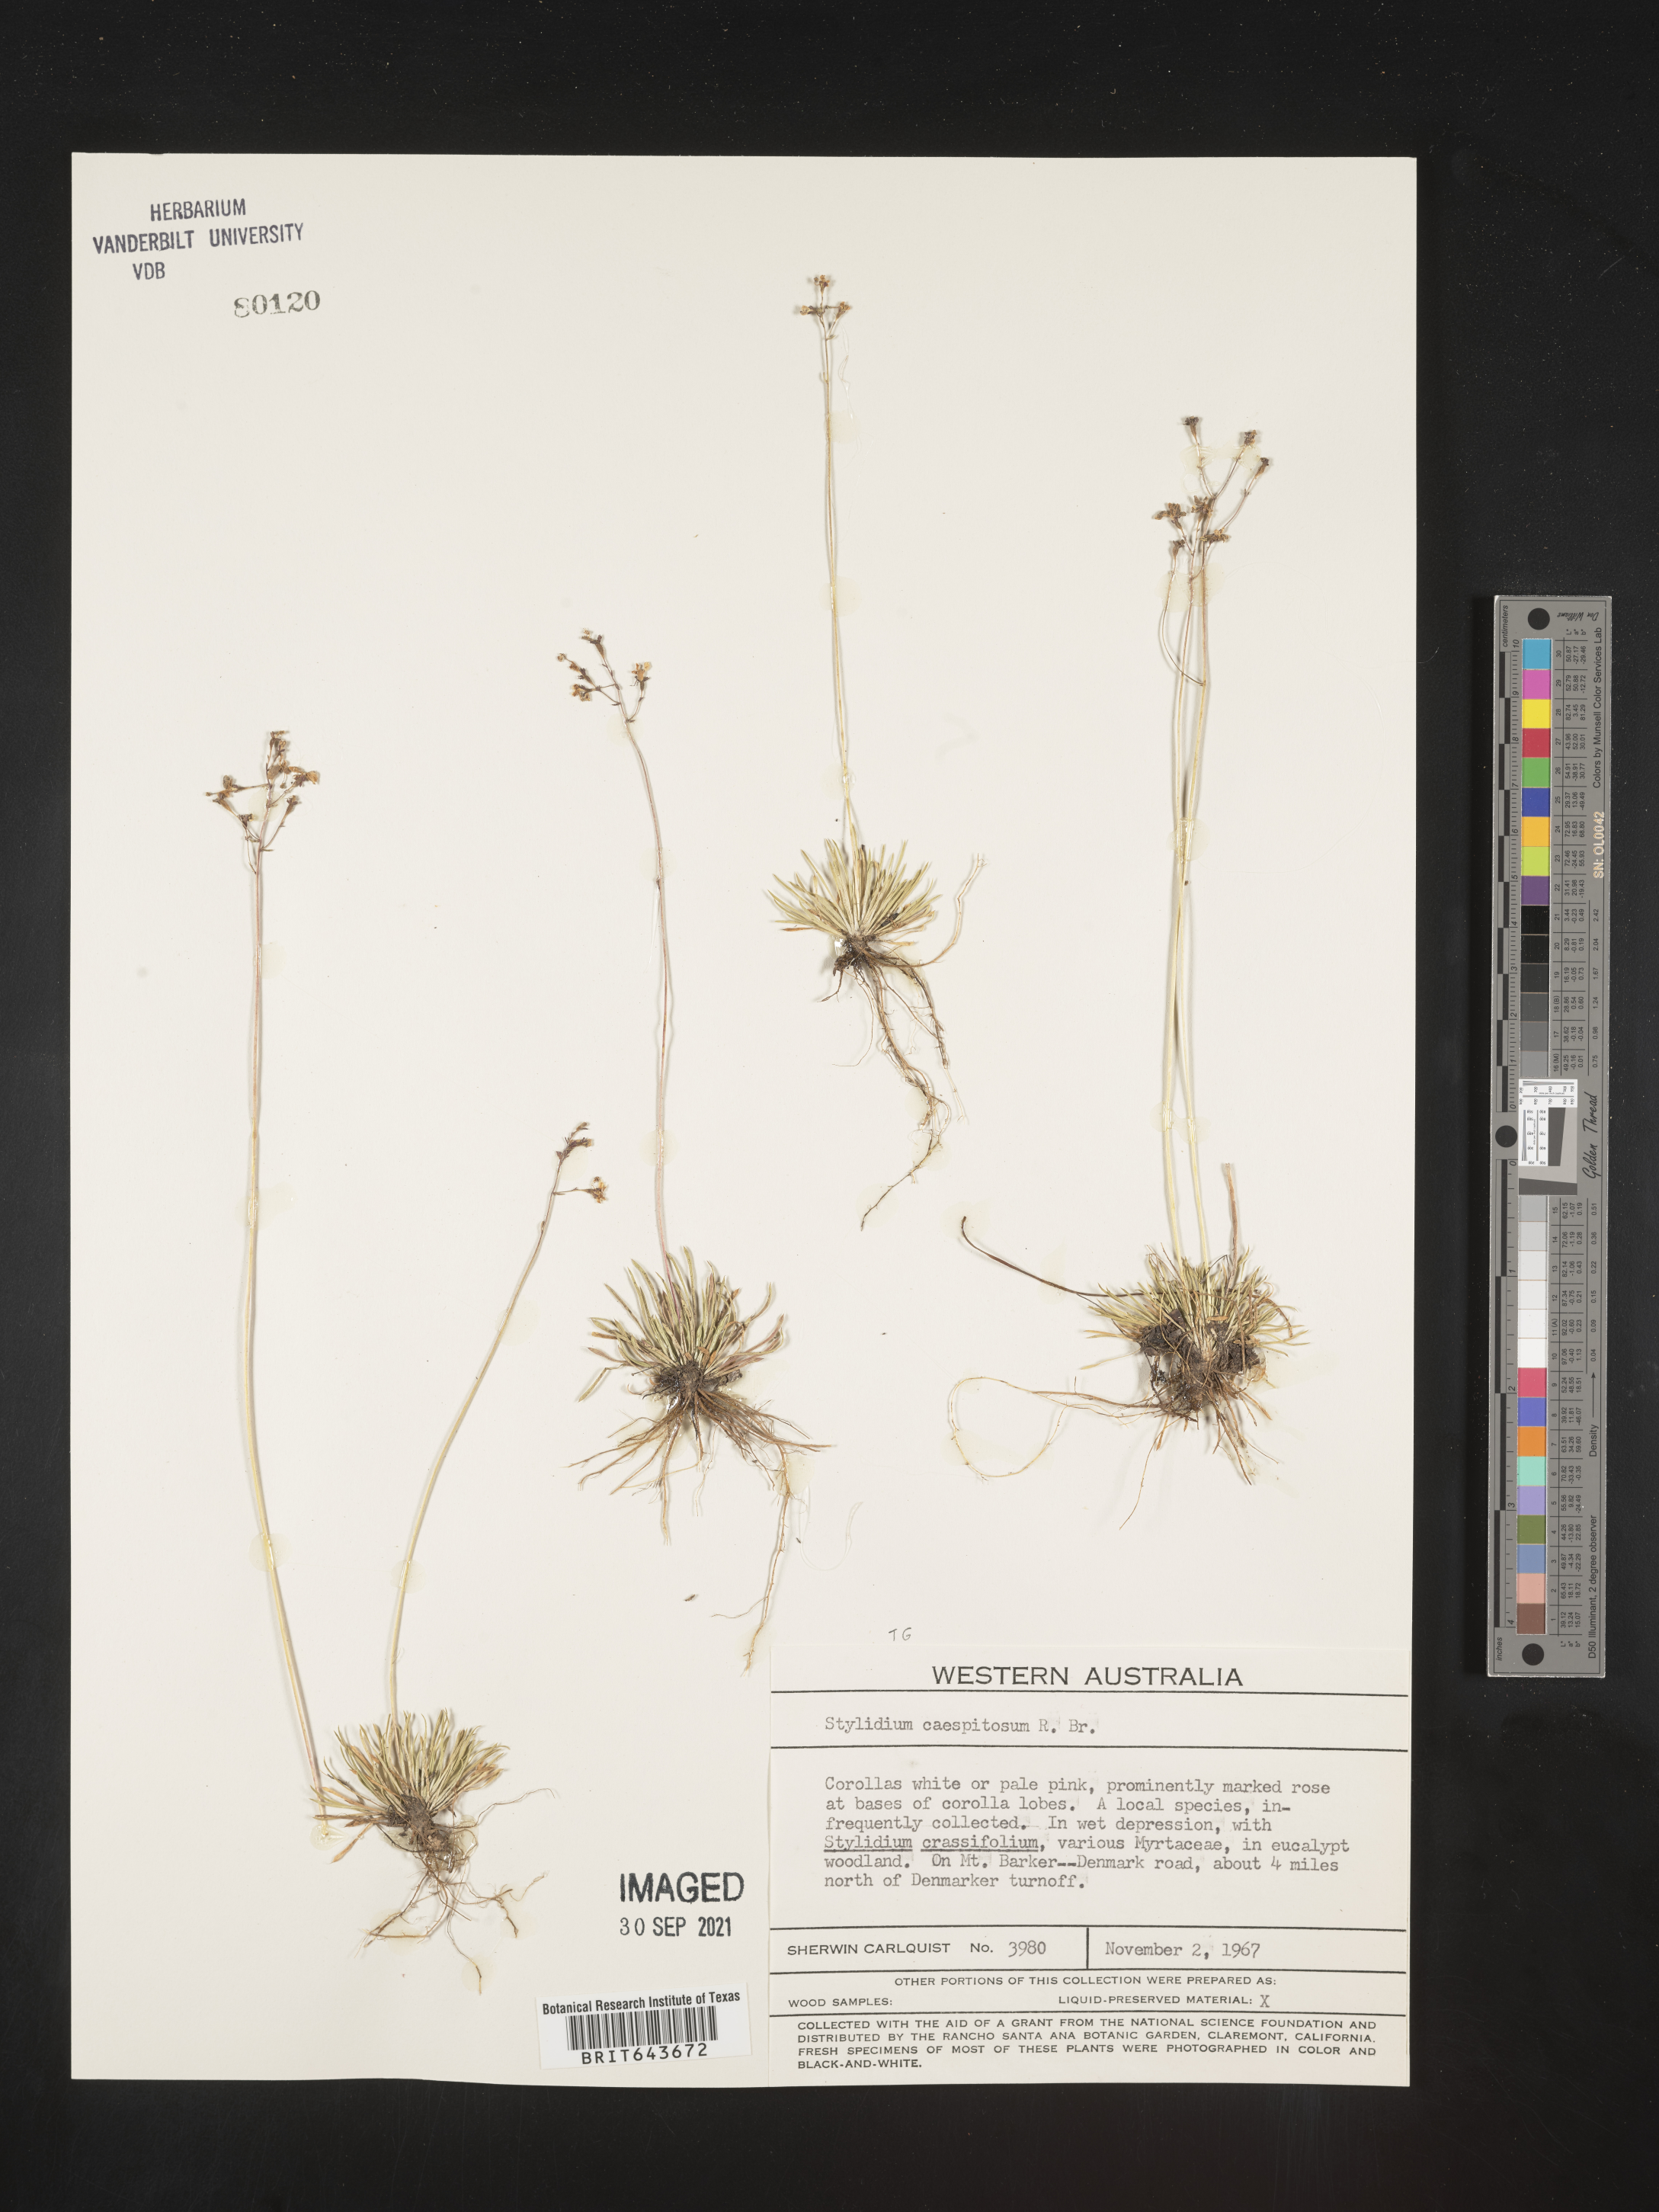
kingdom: Plantae
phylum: Tracheophyta
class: Magnoliopsida
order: Asterales
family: Stylidiaceae
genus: Stylidium
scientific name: Stylidium
